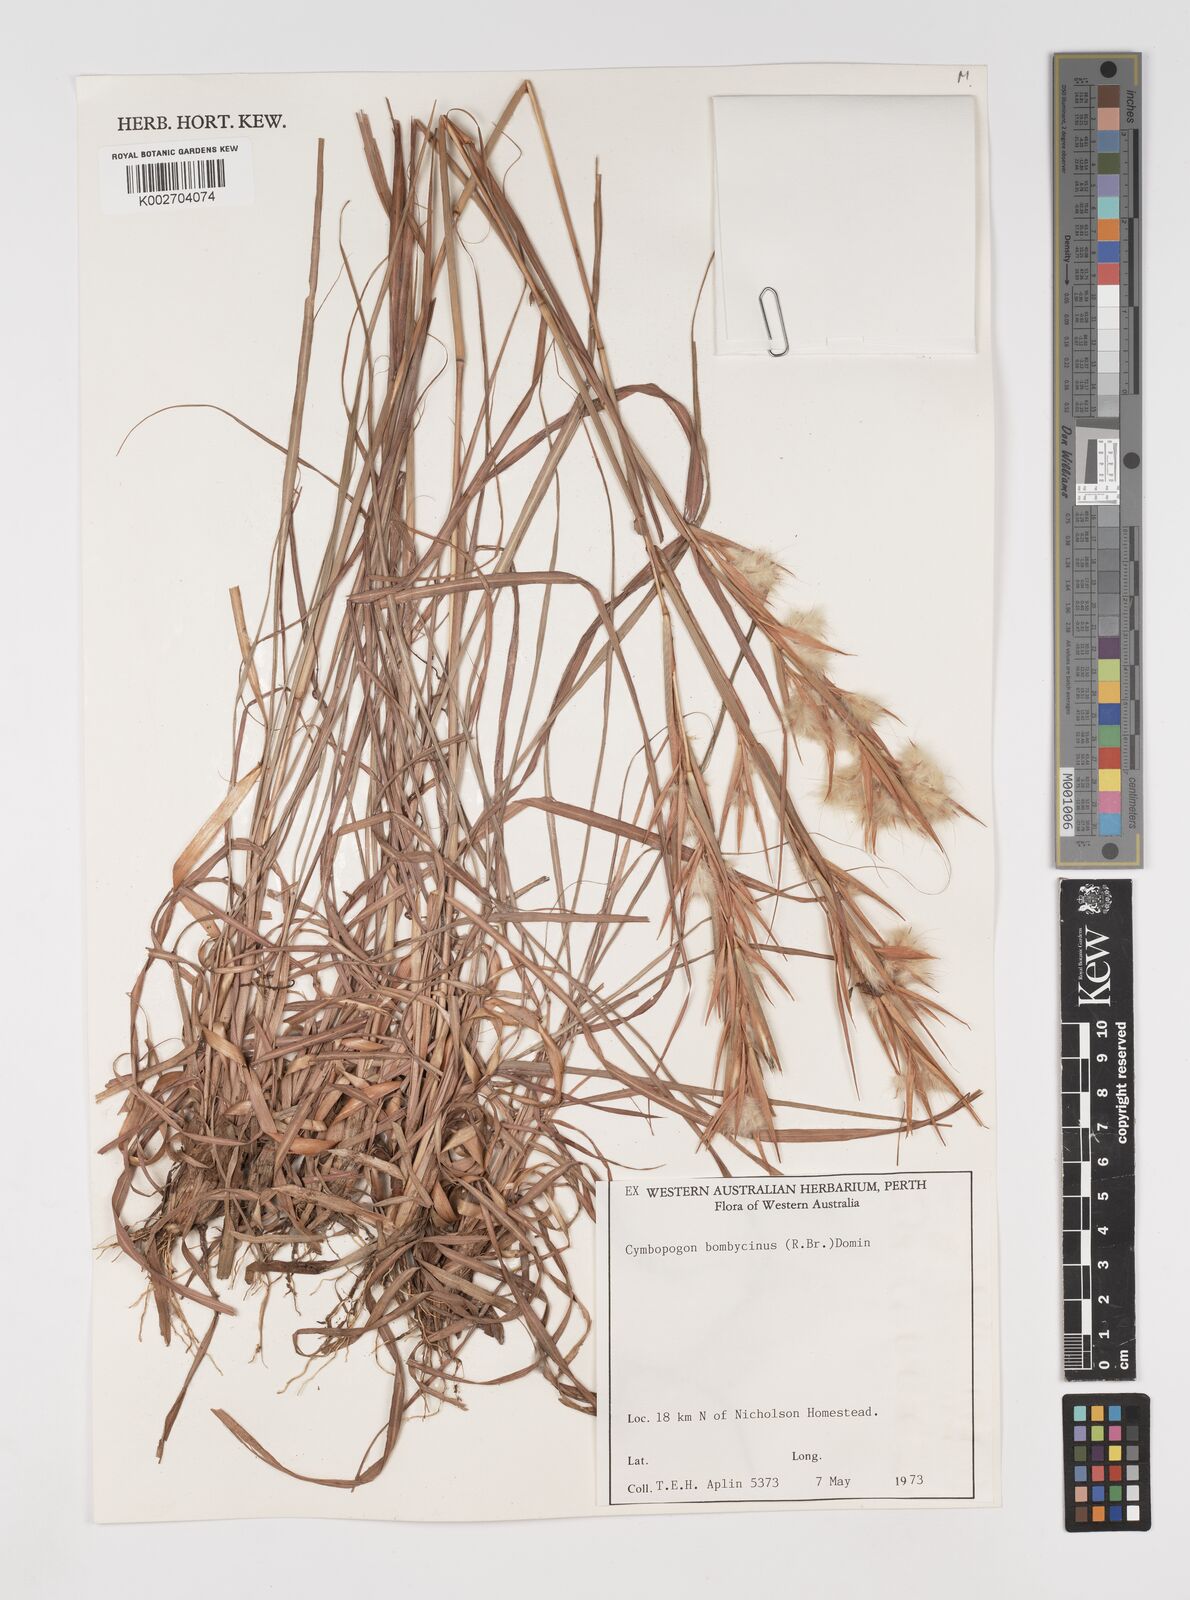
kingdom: Plantae
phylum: Tracheophyta
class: Liliopsida
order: Poales
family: Poaceae
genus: Cymbopogon
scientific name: Cymbopogon bombycinus
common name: Citronella grass
